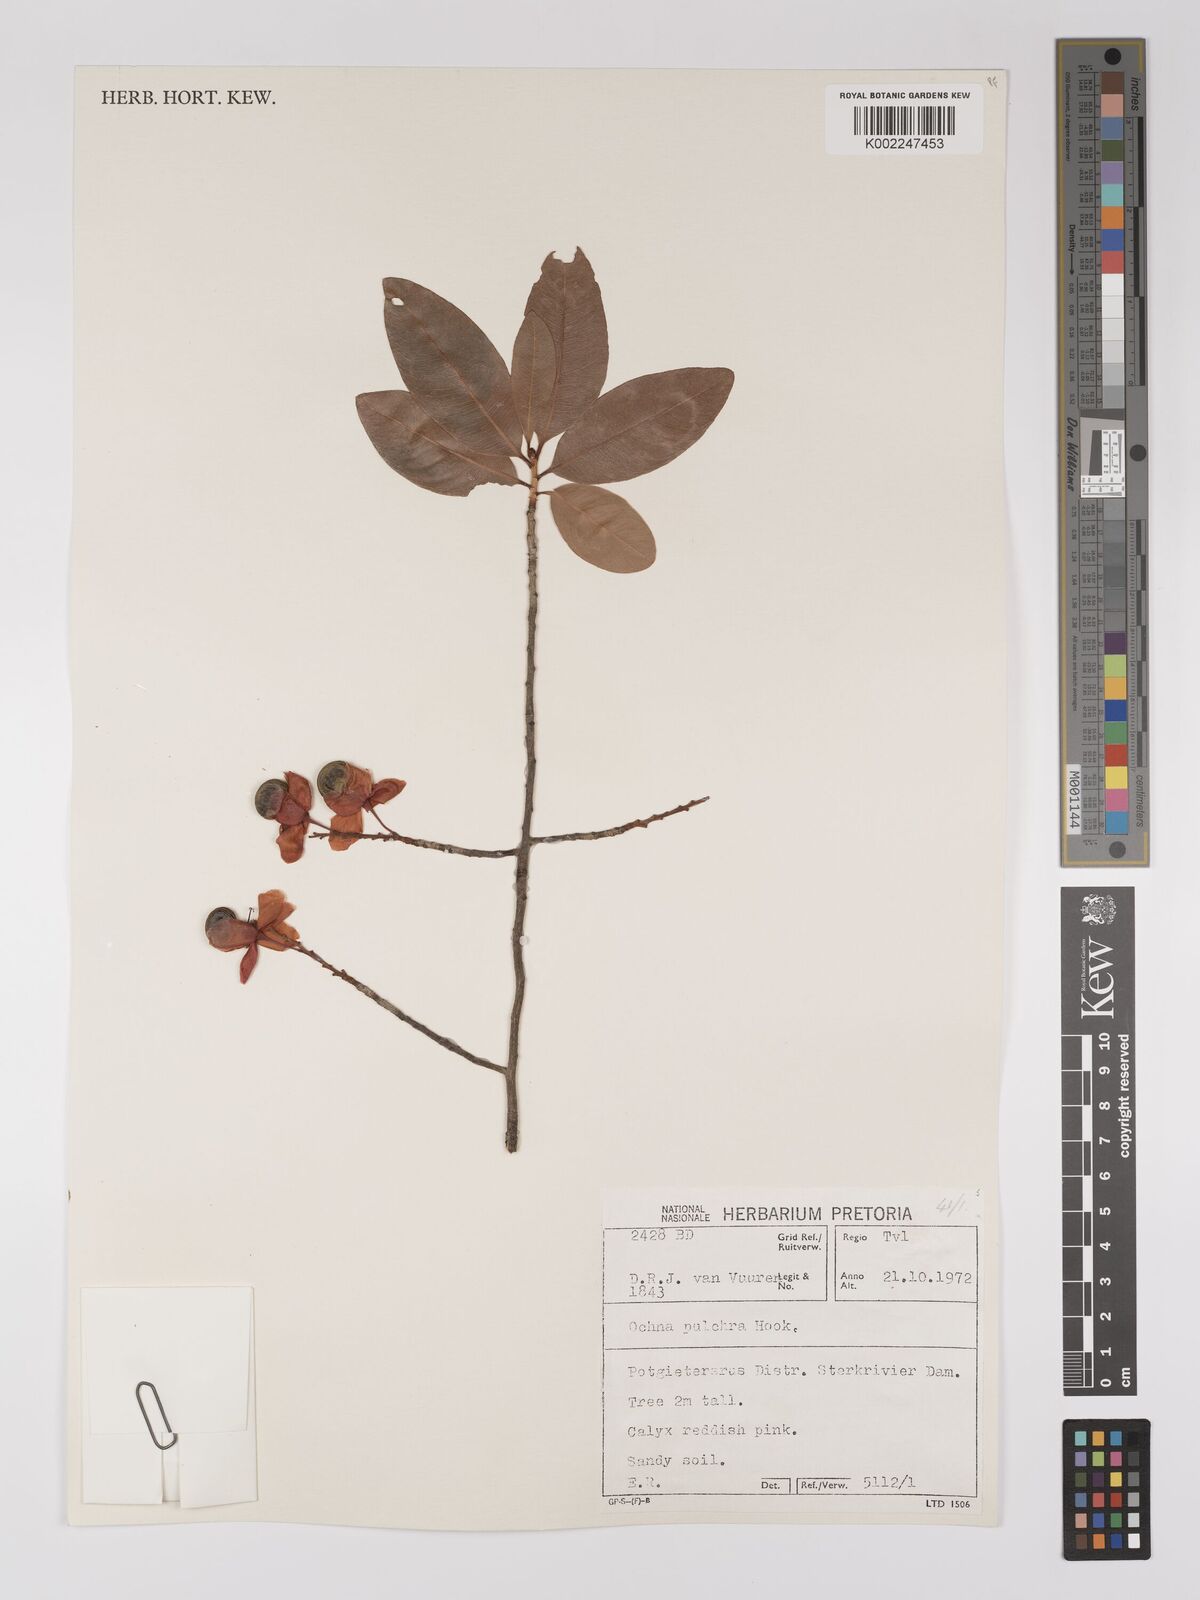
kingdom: Plantae
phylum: Tracheophyta
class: Magnoliopsida
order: Malpighiales
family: Ochnaceae
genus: Ochna
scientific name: Ochna pulchra
